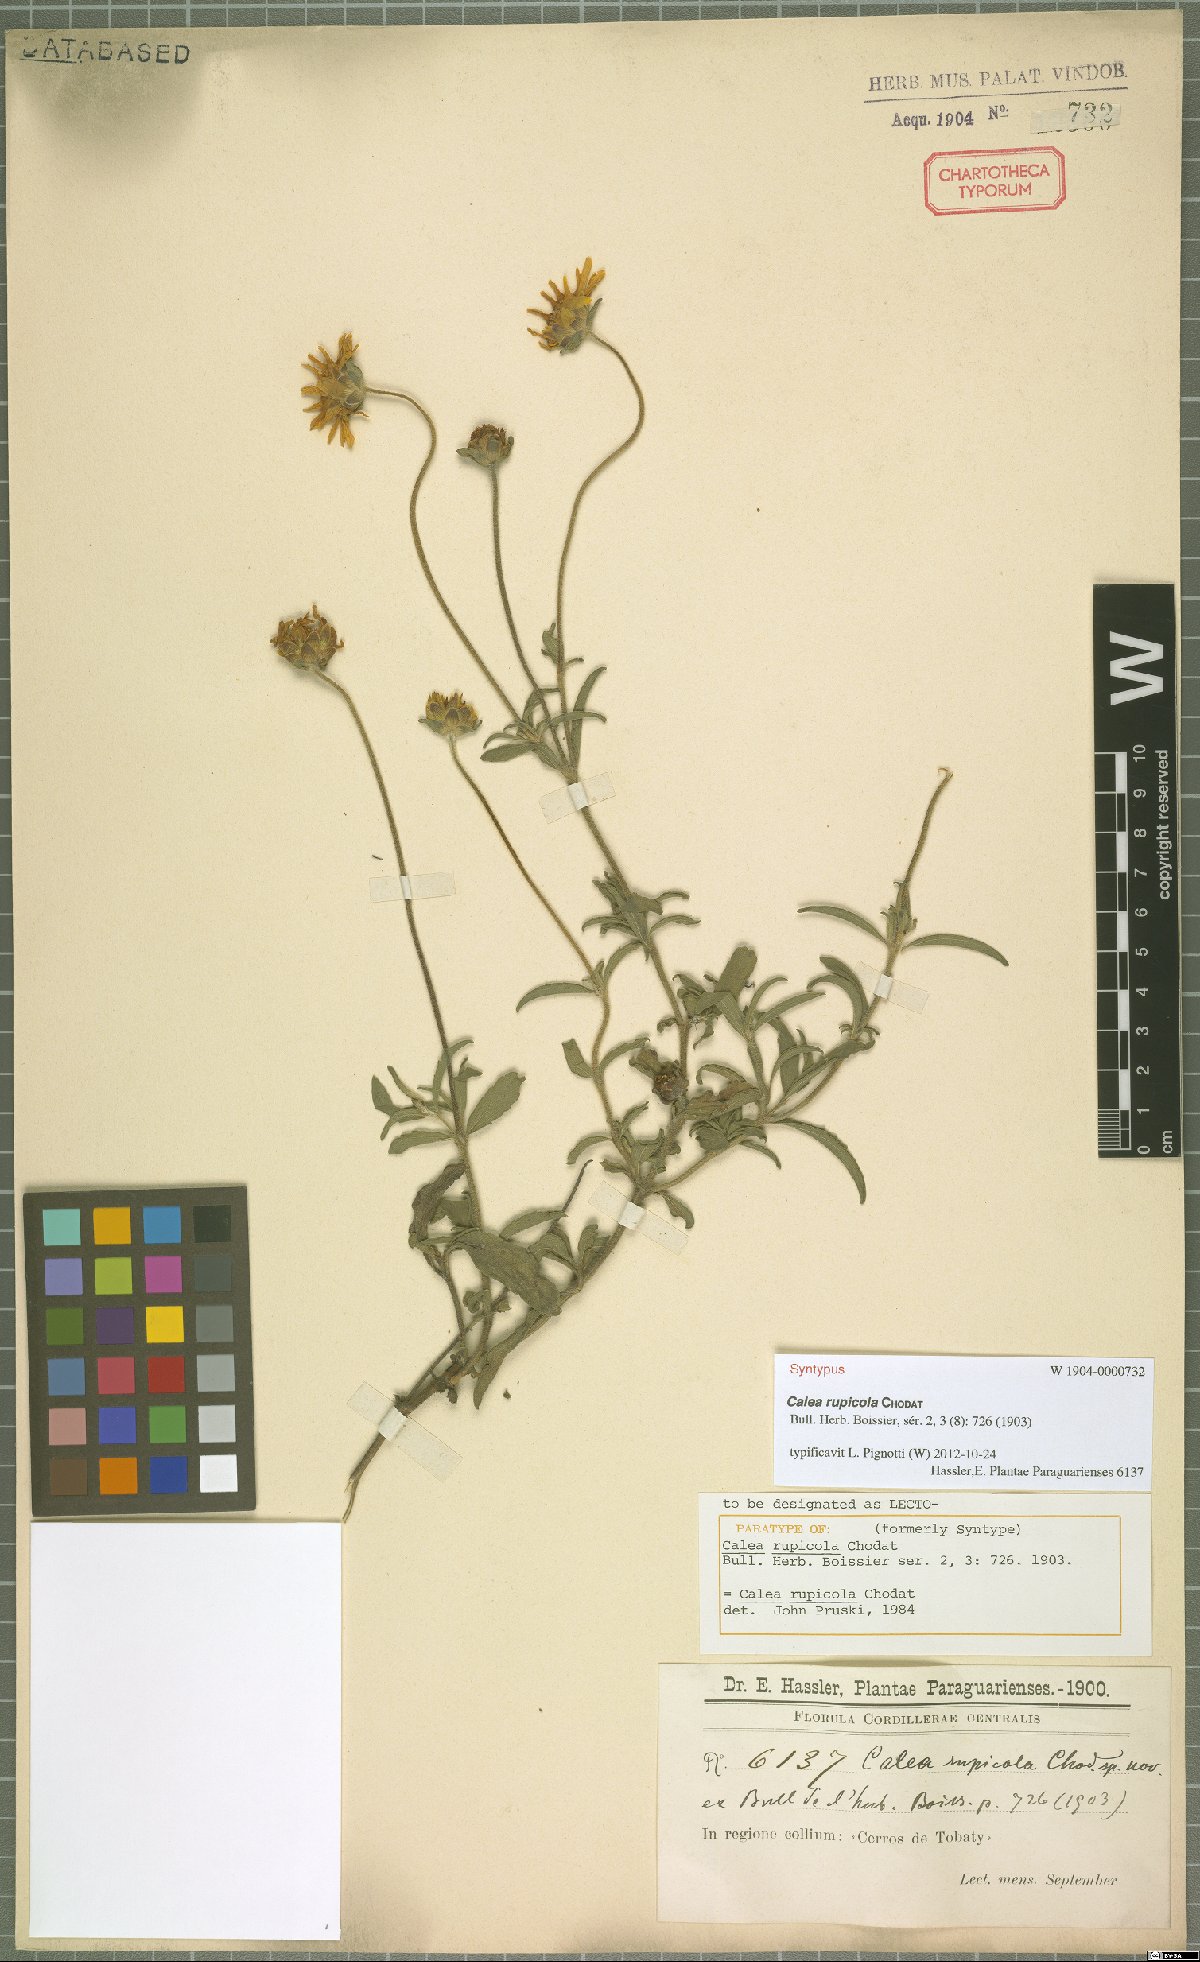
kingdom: Plantae
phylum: Tracheophyta
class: Magnoliopsida
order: Asterales
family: Asteraceae
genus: Calea
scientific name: Calea rupicola
